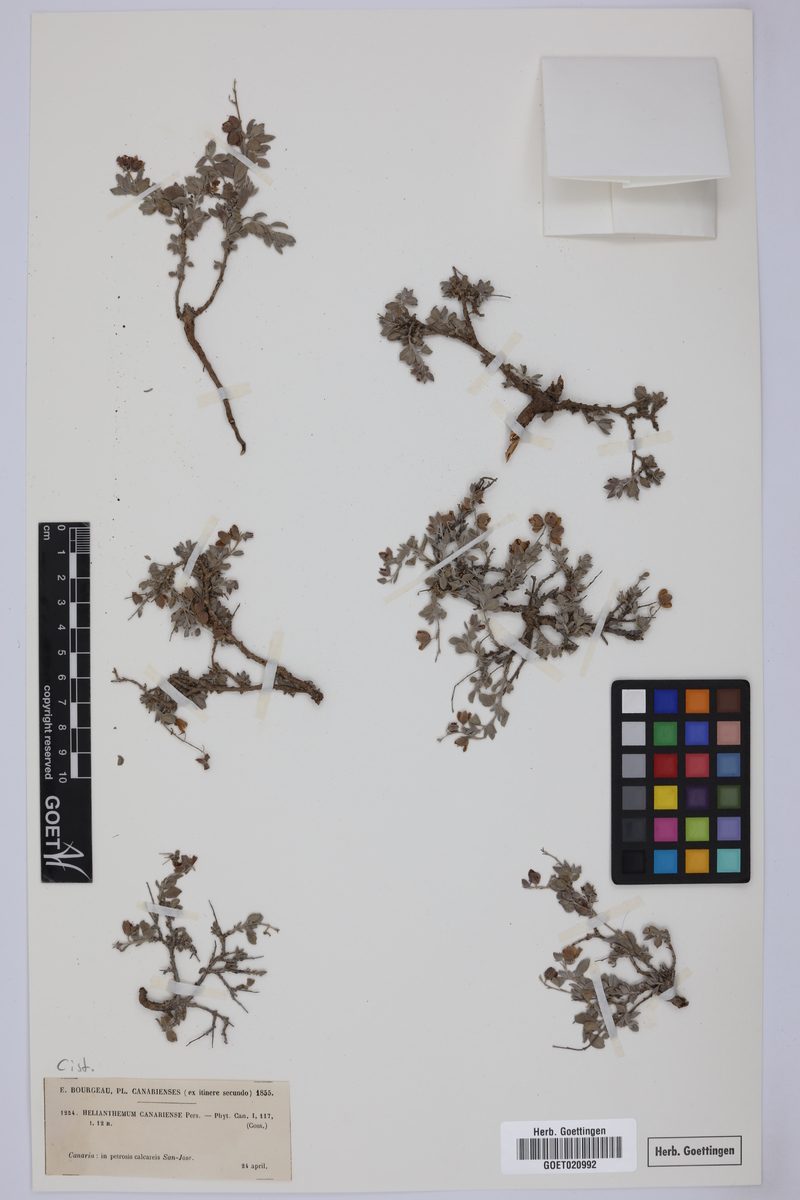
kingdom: Plantae
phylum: Tracheophyta
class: Magnoliopsida
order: Malvales
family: Cistaceae
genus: Helianthemum
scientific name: Helianthemum canariense
